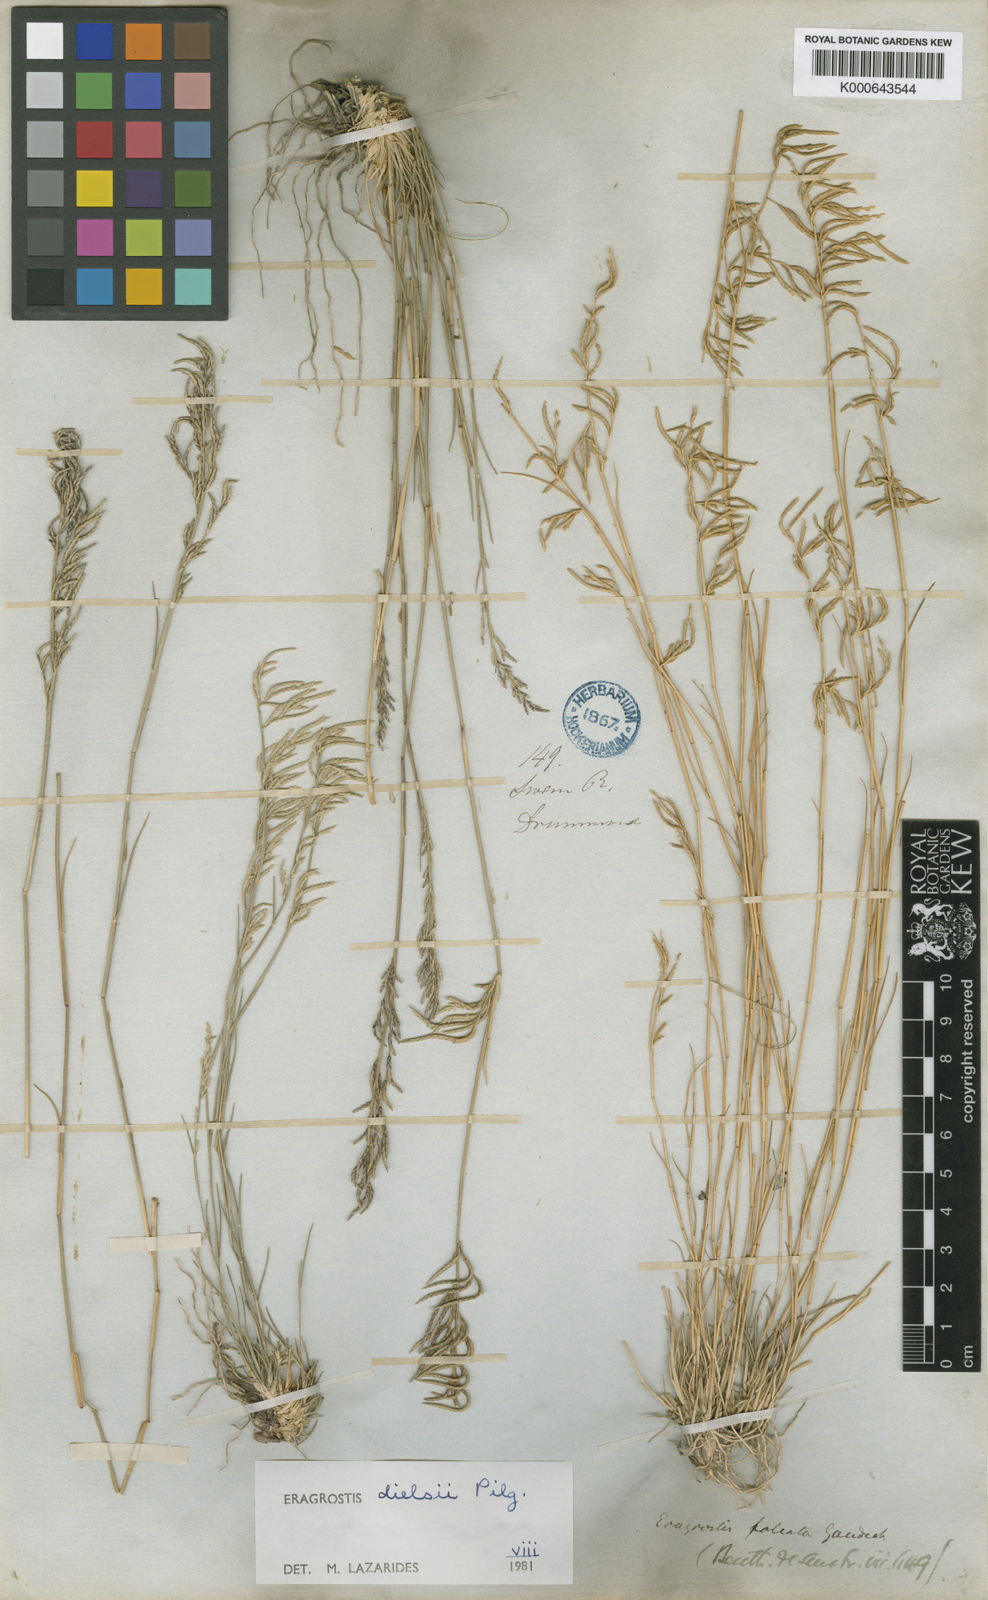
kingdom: Plantae
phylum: Tracheophyta
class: Liliopsida
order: Poales
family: Poaceae
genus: Eragrostis
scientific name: Eragrostis
